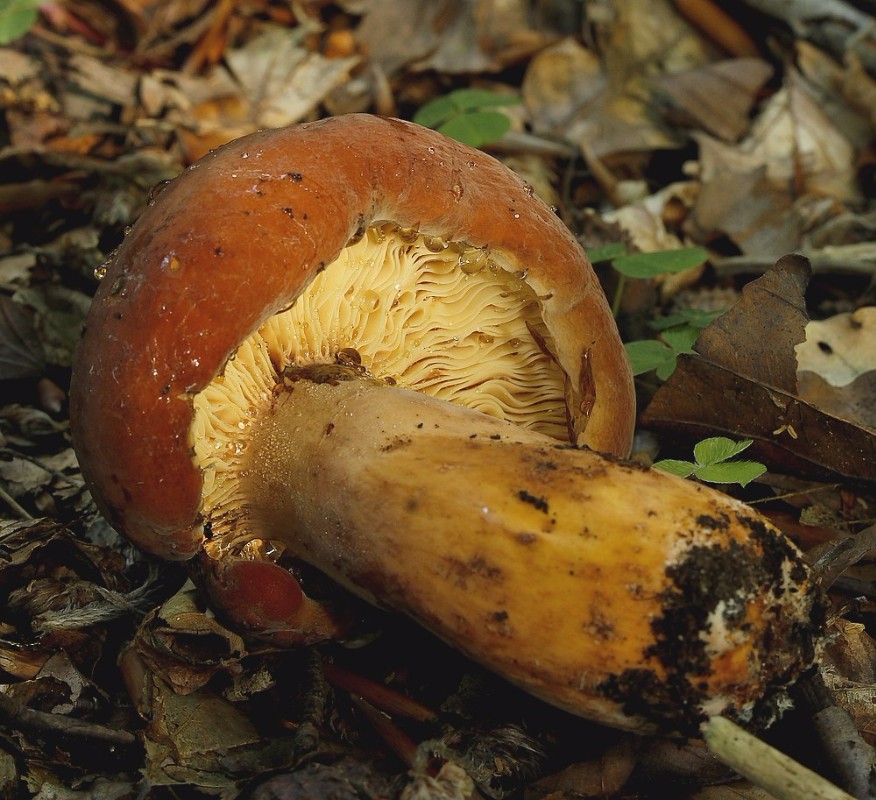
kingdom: Fungi
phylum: Basidiomycota
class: Agaricomycetes
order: Russulales
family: Russulaceae
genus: Lactifluus
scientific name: Lactifluus volemus
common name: spiselig mælkehat
